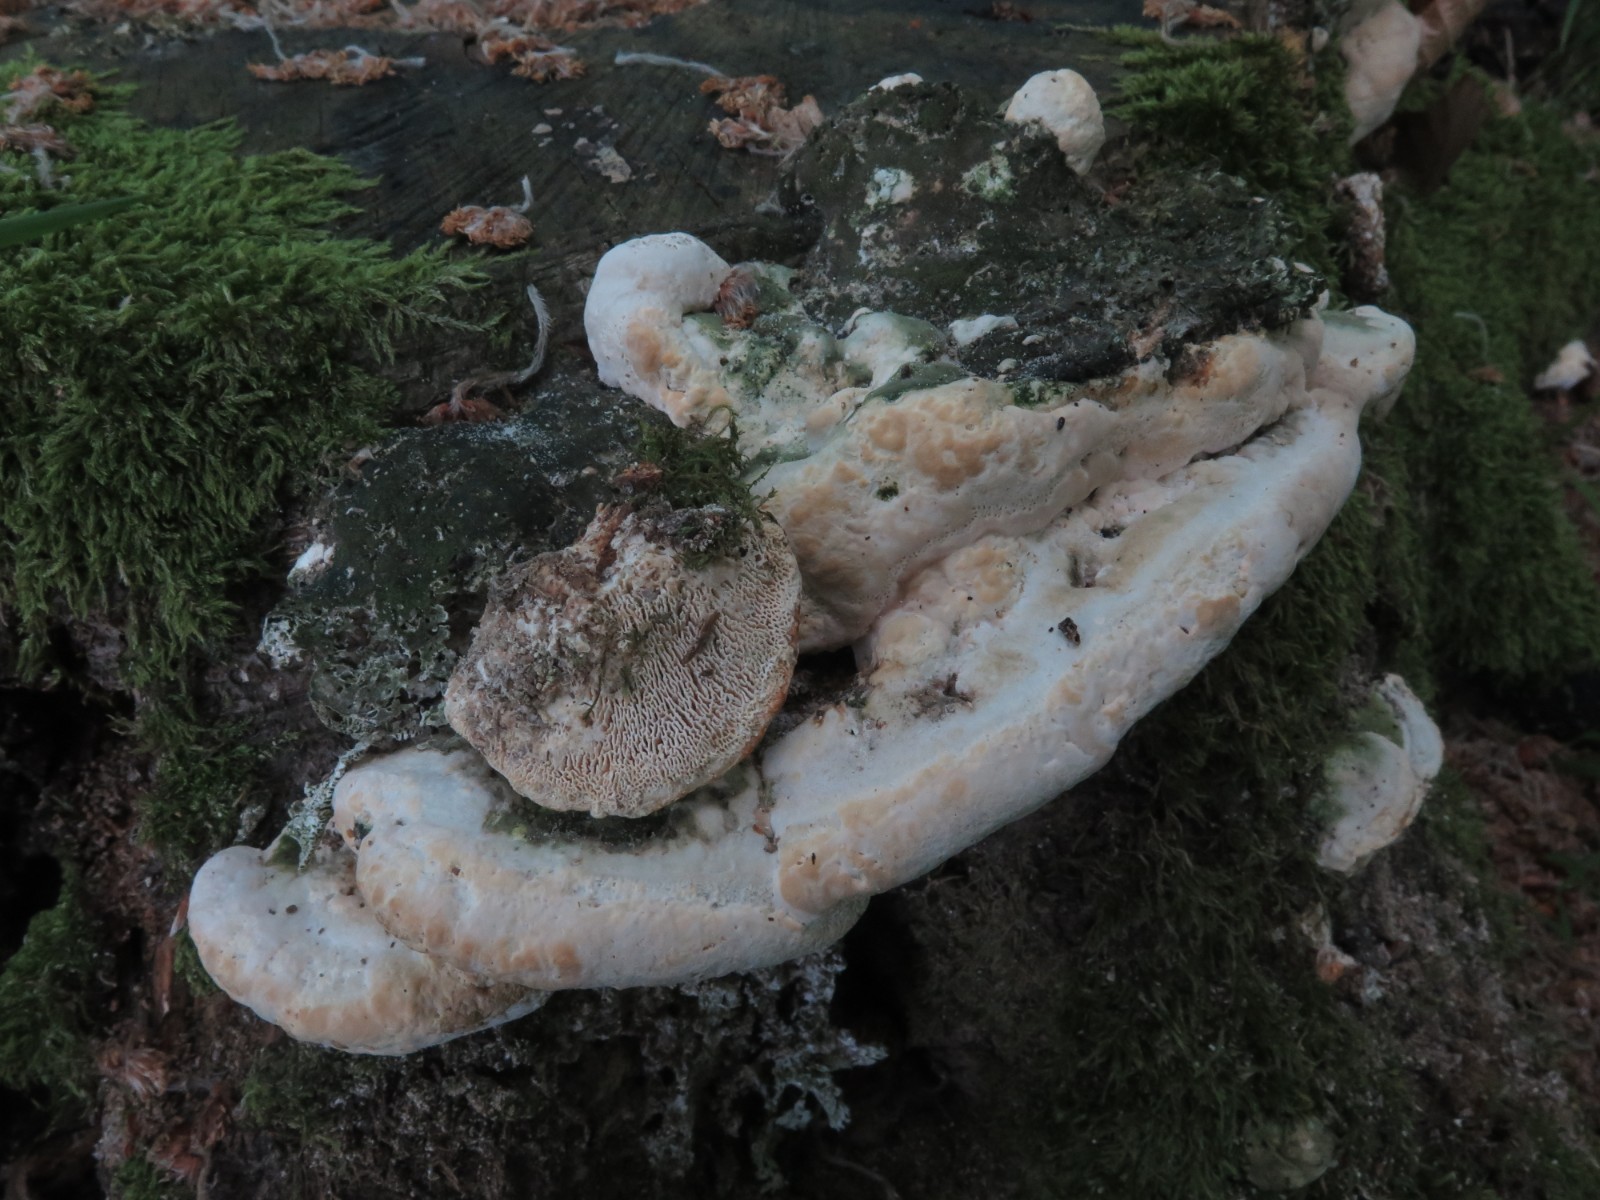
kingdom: Fungi
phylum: Basidiomycota
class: Agaricomycetes
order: Polyporales
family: Polyporaceae
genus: Trametes
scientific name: Trametes gibbosa
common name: puklet læderporesvamp
